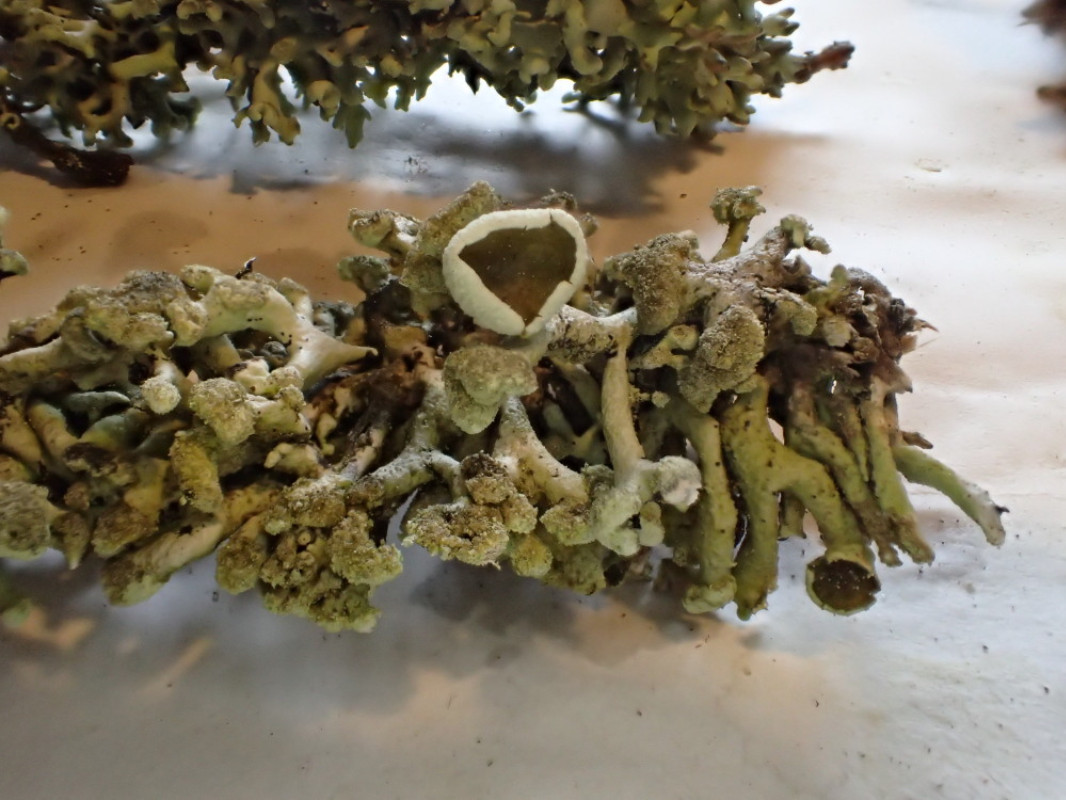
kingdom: Fungi
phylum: Ascomycota
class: Lecanoromycetes
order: Lecanorales
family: Parmeliaceae
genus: Hypogymnia
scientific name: Hypogymnia tubulosa
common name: finger-kvistlav
